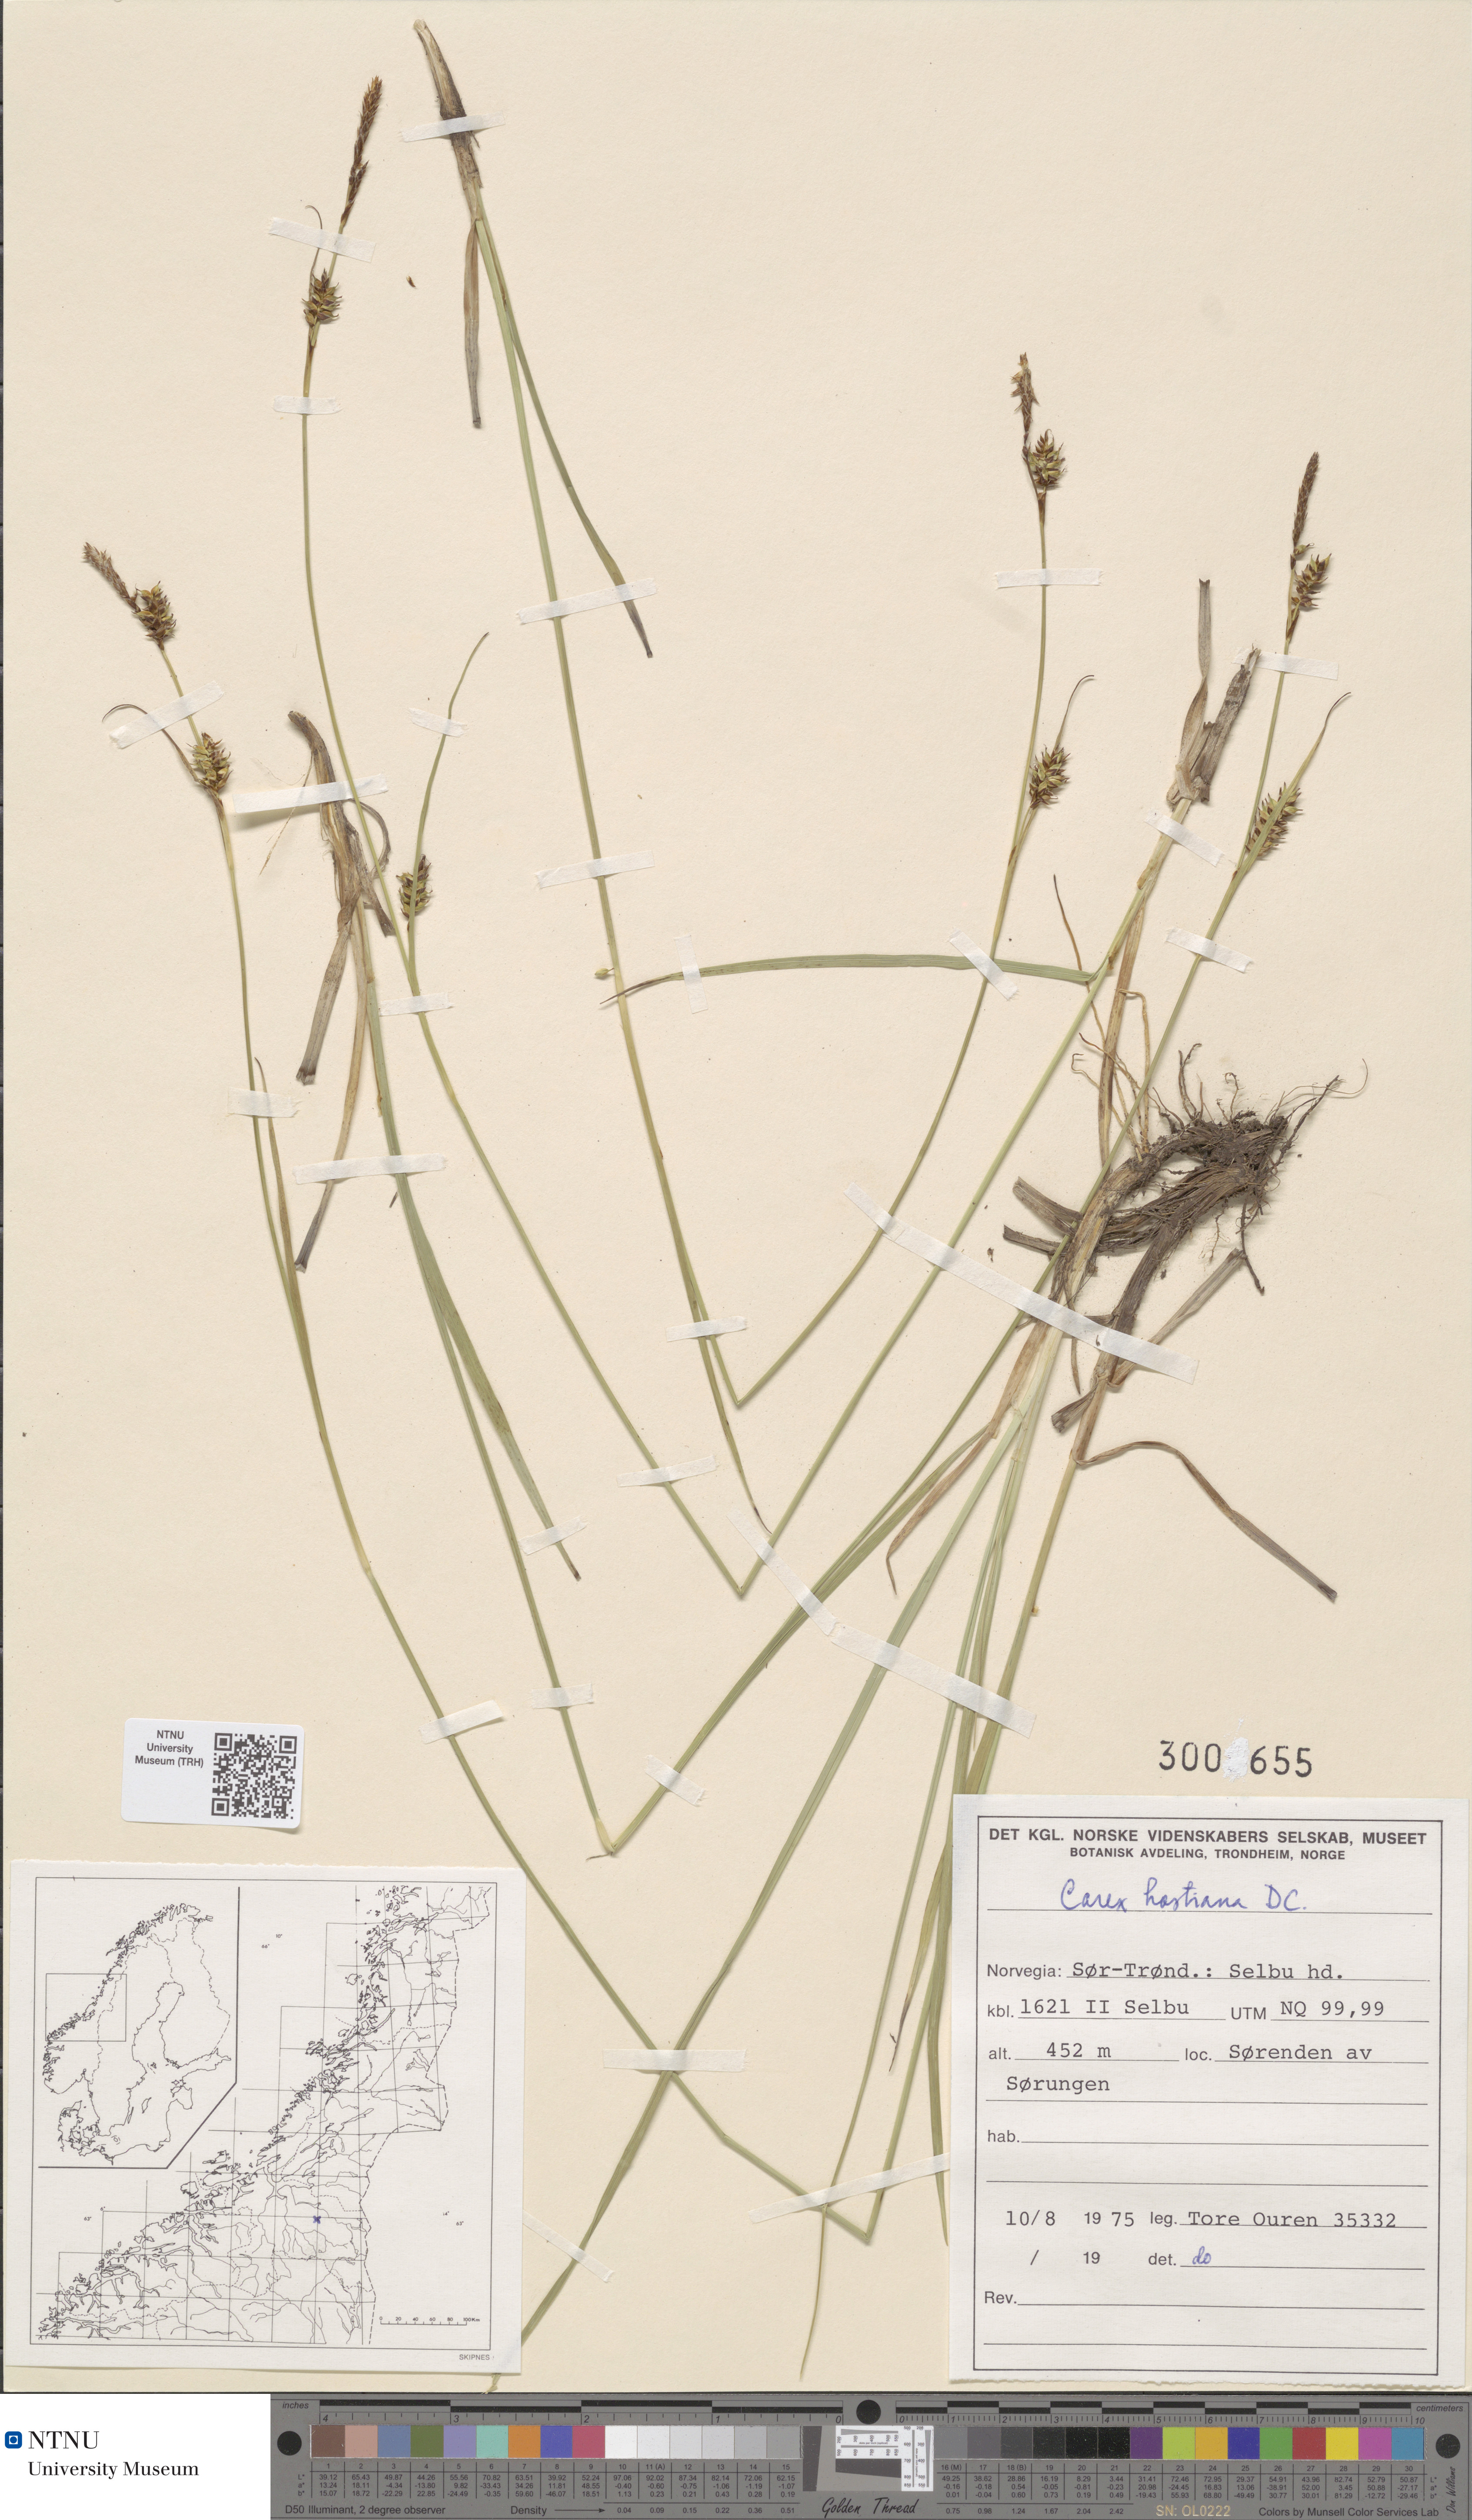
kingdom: Plantae
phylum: Tracheophyta
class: Liliopsida
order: Poales
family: Cyperaceae
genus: Carex
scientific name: Carex hostiana
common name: Tawny sedge
